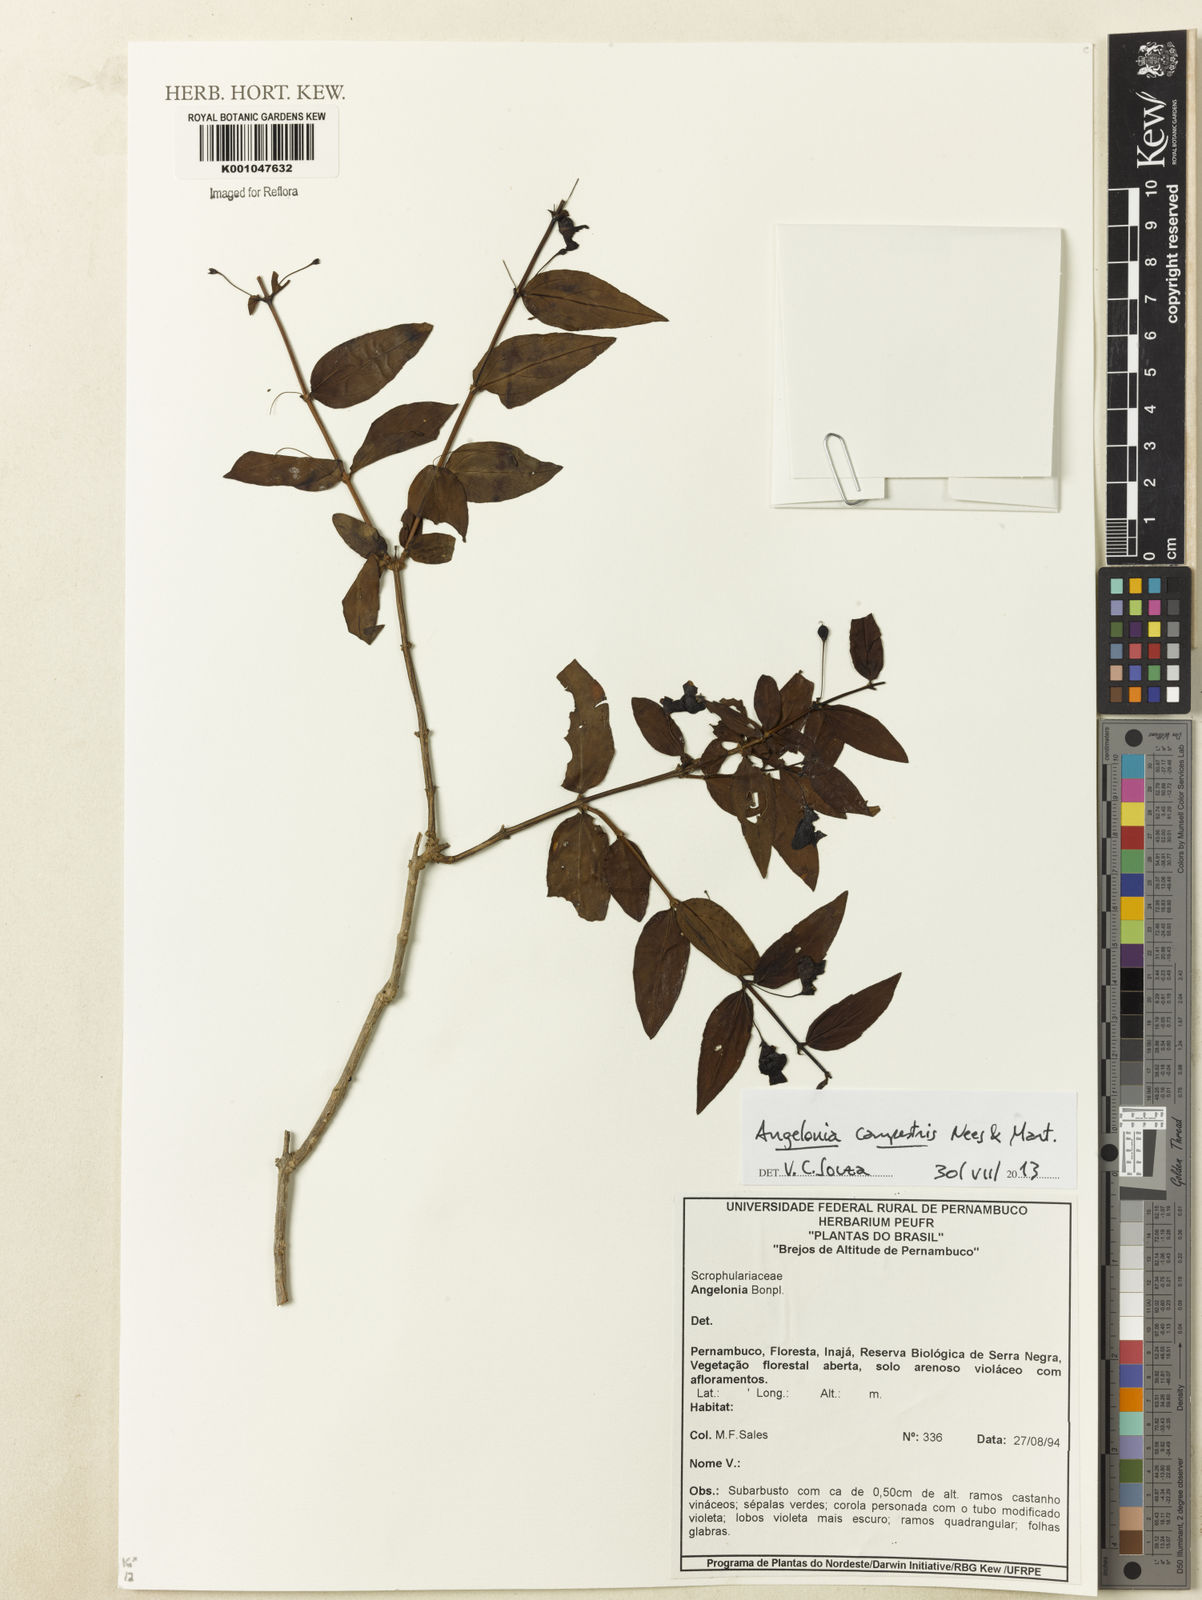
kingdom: Plantae
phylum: Tracheophyta
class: Magnoliopsida
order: Lamiales
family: Plantaginaceae
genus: Angelonia
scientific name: Angelonia campestris
